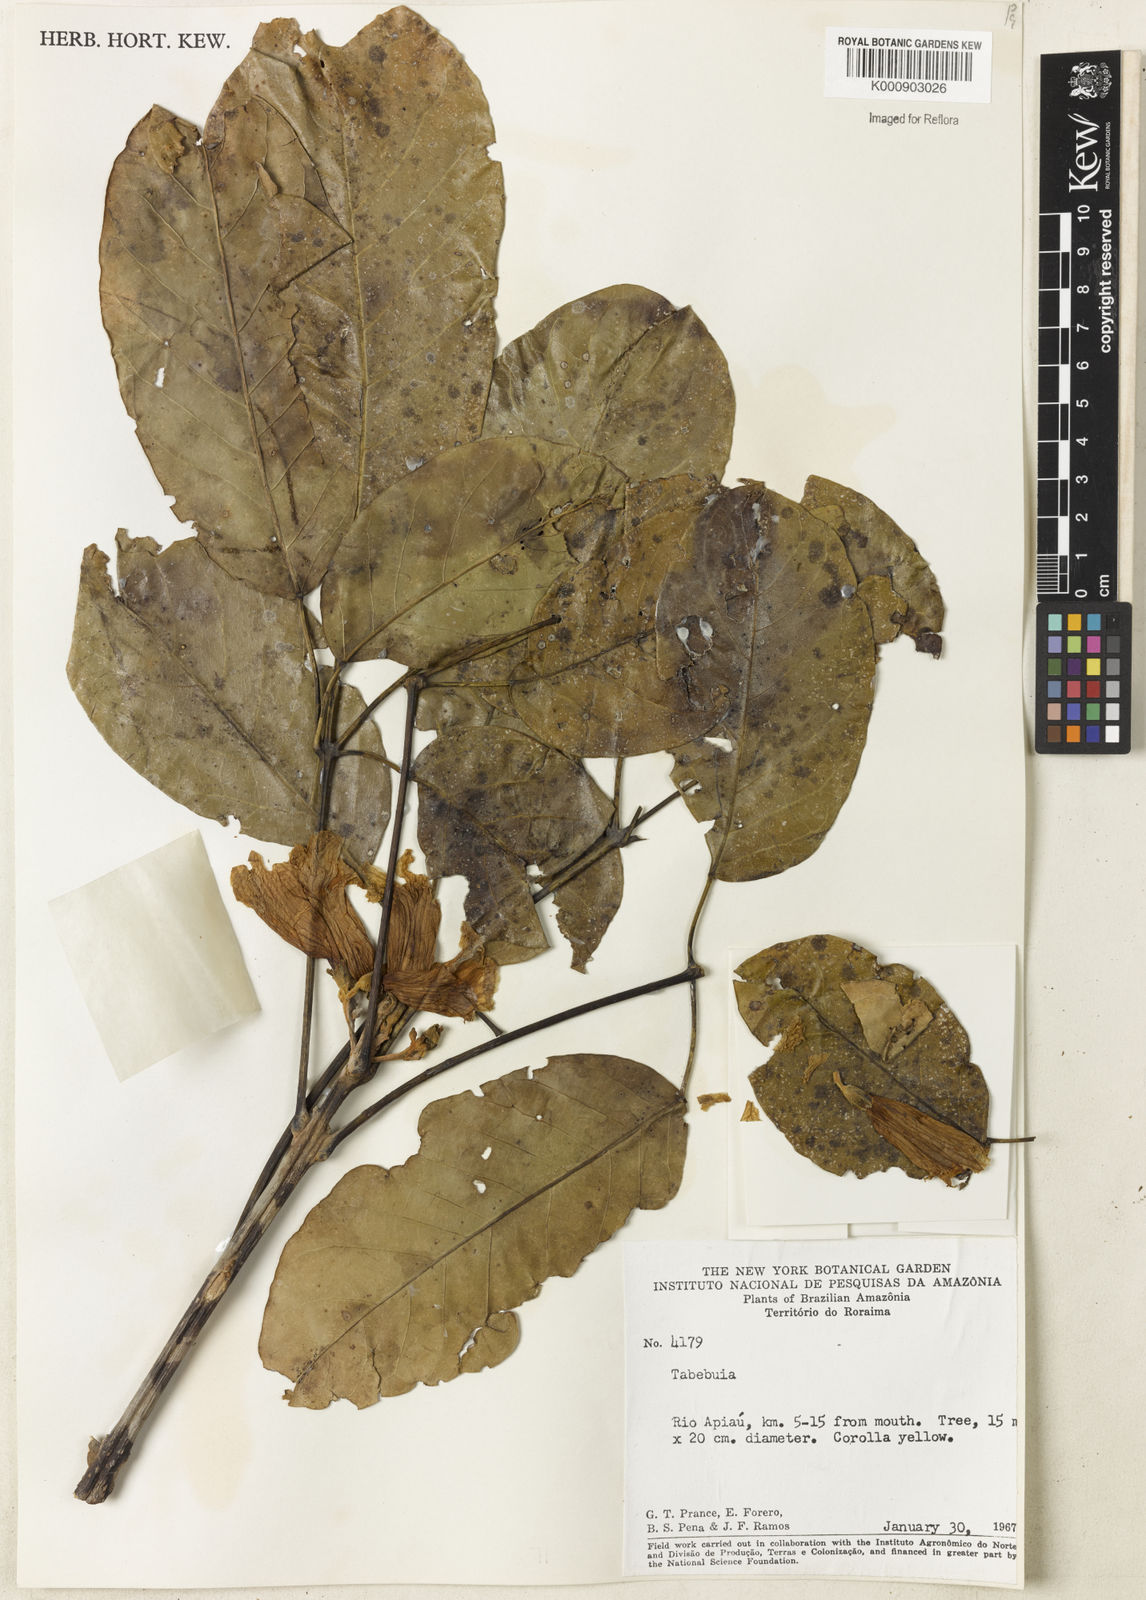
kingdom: Plantae
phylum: Tracheophyta
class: Magnoliopsida
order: Lamiales
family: Bignoniaceae
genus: Tabebuia
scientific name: Tabebuia
